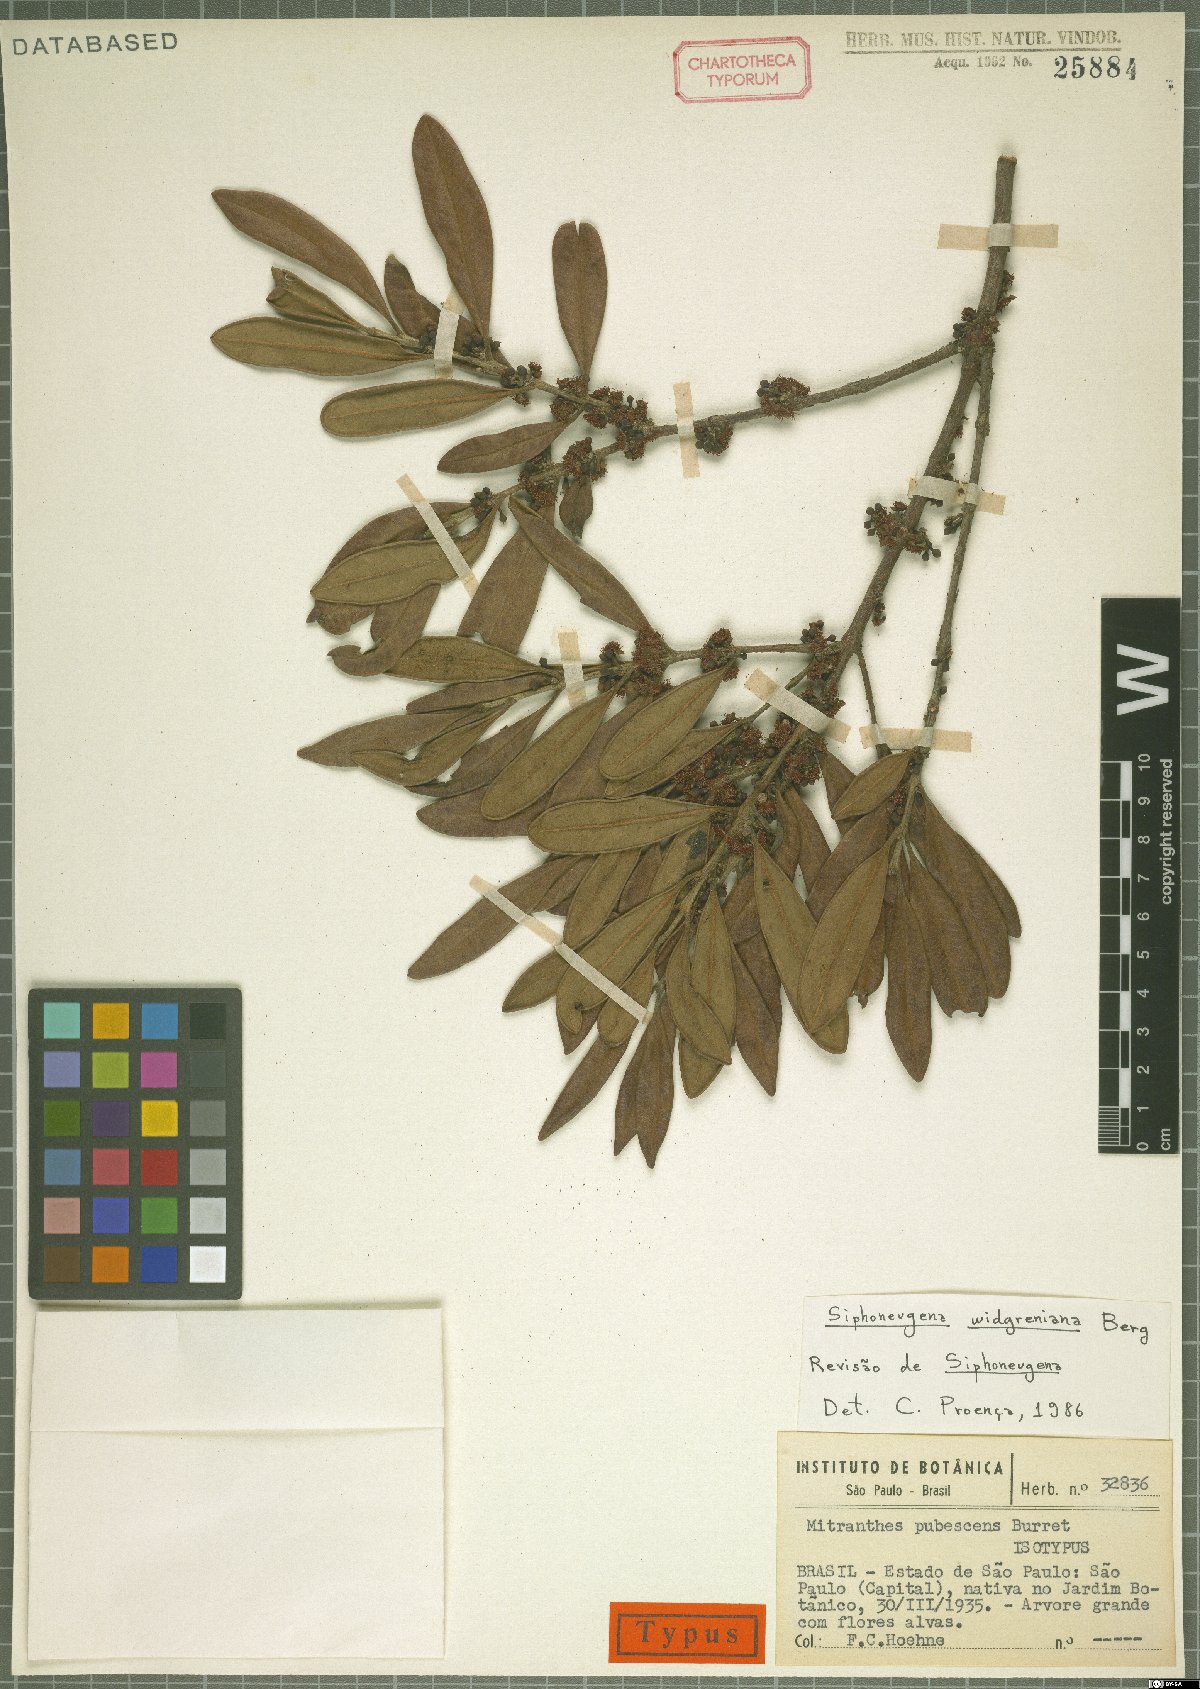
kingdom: Plantae
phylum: Tracheophyta
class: Magnoliopsida
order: Myrtales
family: Myrtaceae
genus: Siphoneugena
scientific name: Siphoneugena crassifolia
